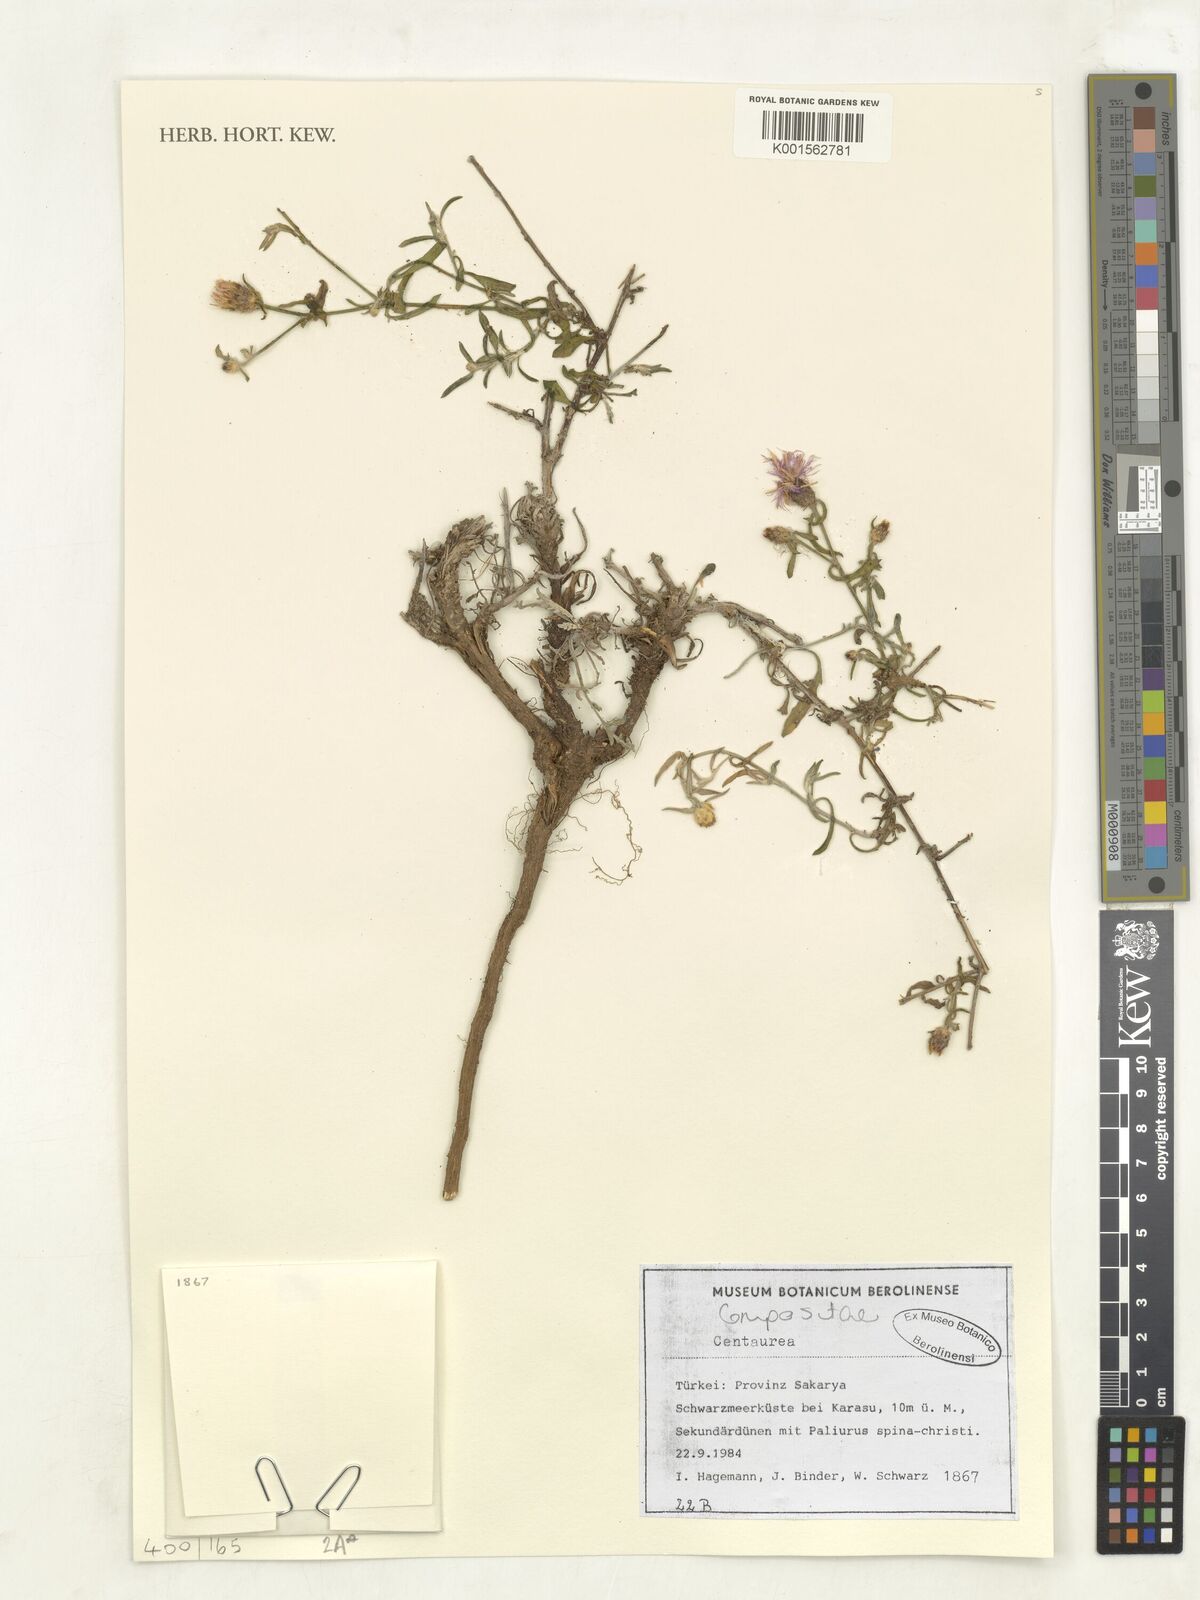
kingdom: Plantae
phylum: Tracheophyta
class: Magnoliopsida
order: Asterales
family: Asteraceae
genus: Centaurea
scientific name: Centaurea
